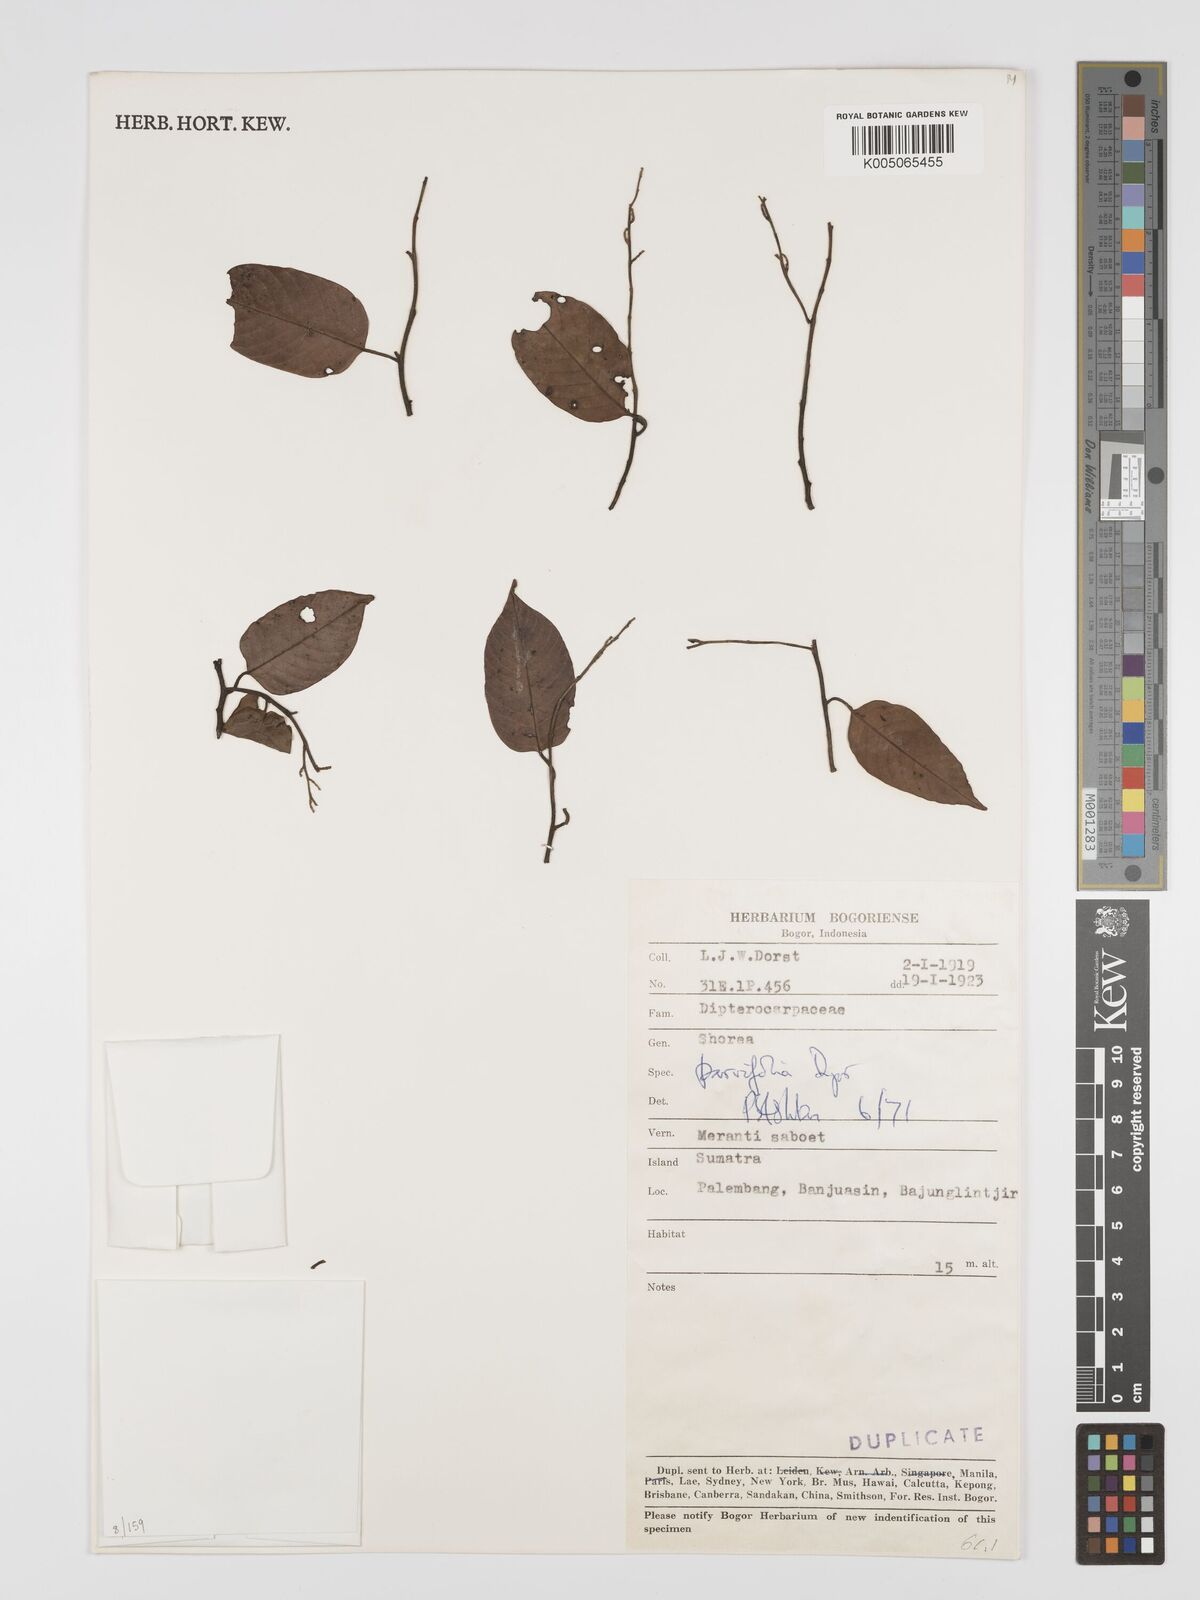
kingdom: Plantae
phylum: Tracheophyta
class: Magnoliopsida
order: Malvales
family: Dipterocarpaceae
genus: Shorea
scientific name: Shorea parvifolia
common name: Light red meranti
